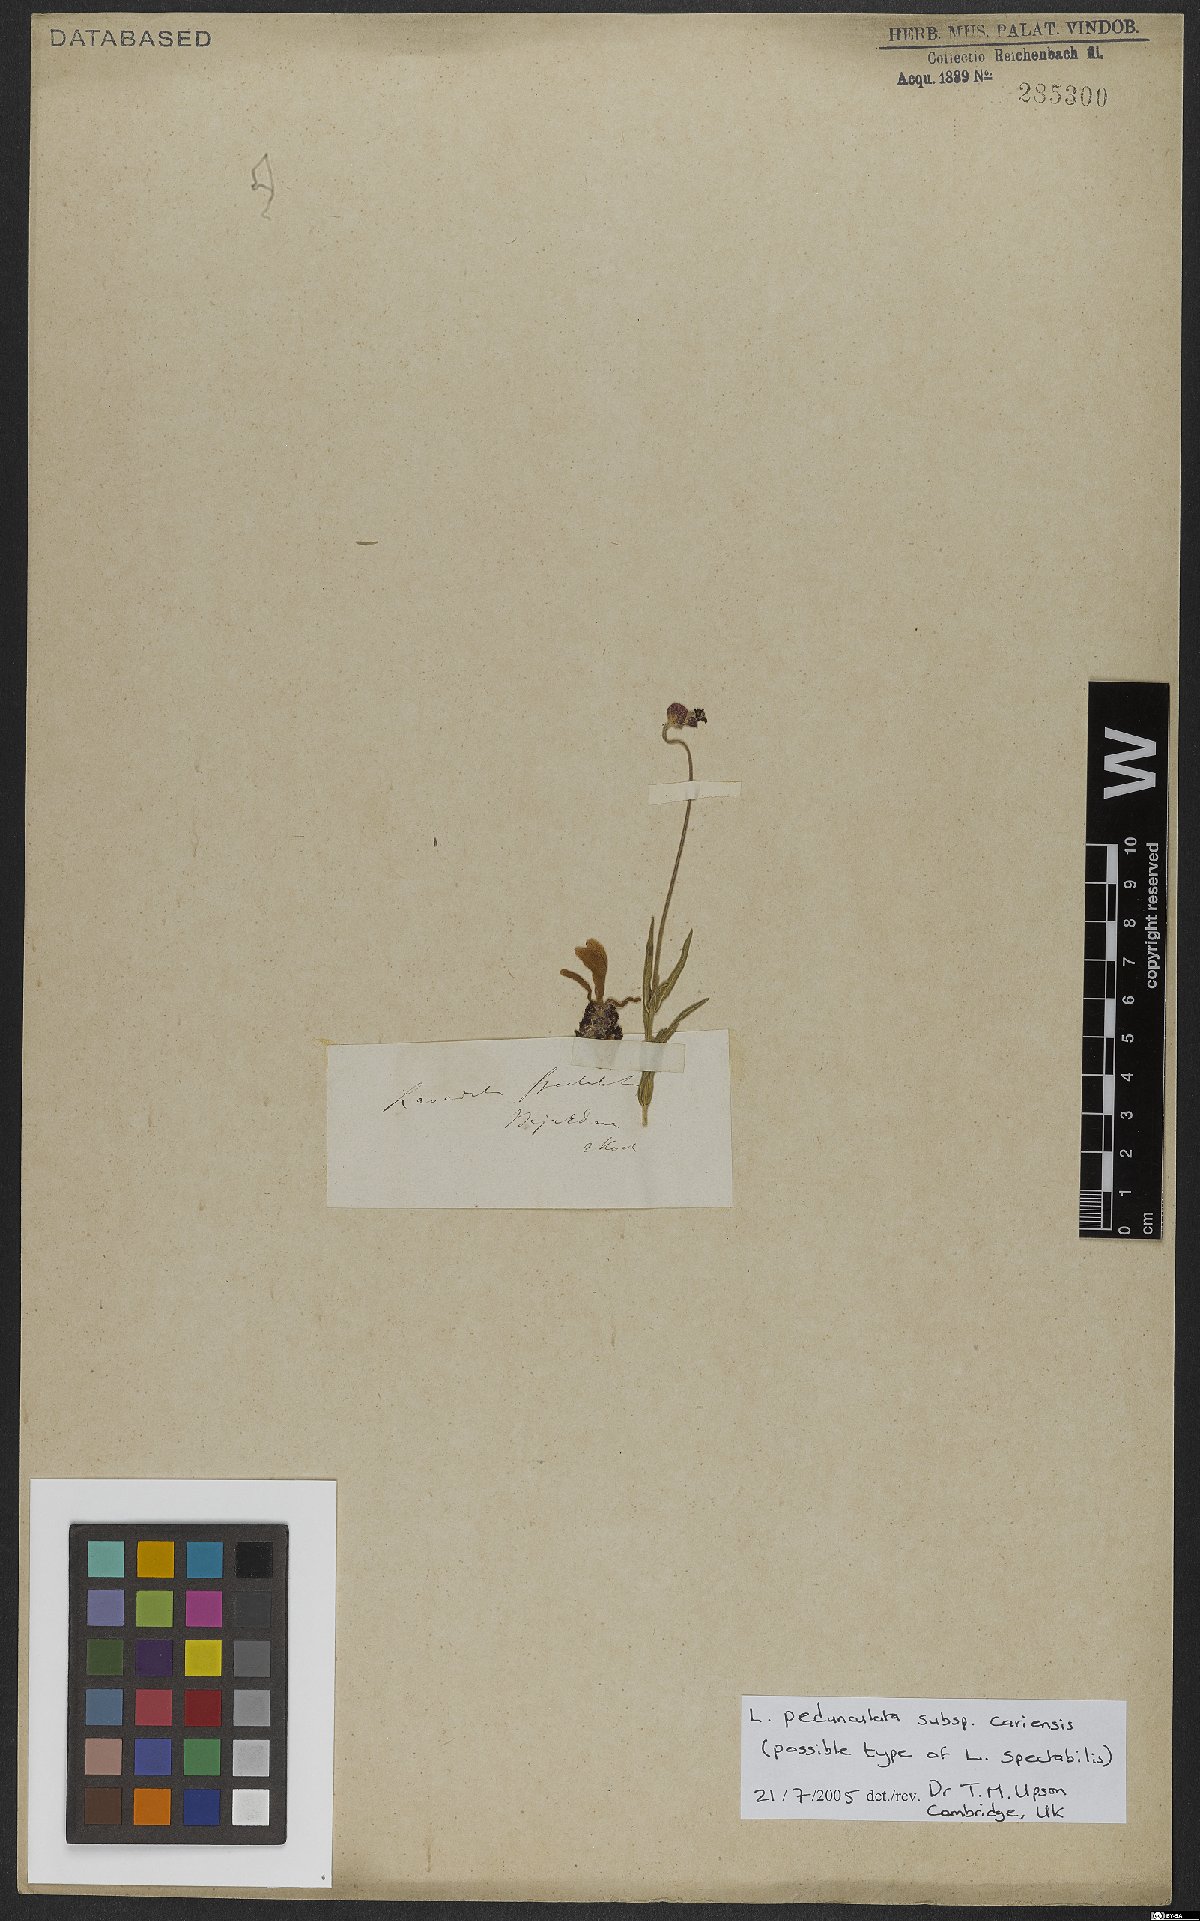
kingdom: Plantae
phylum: Tracheophyta
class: Magnoliopsida
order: Lamiales
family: Lamiaceae
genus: Lavandula
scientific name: Lavandula pedunculata
